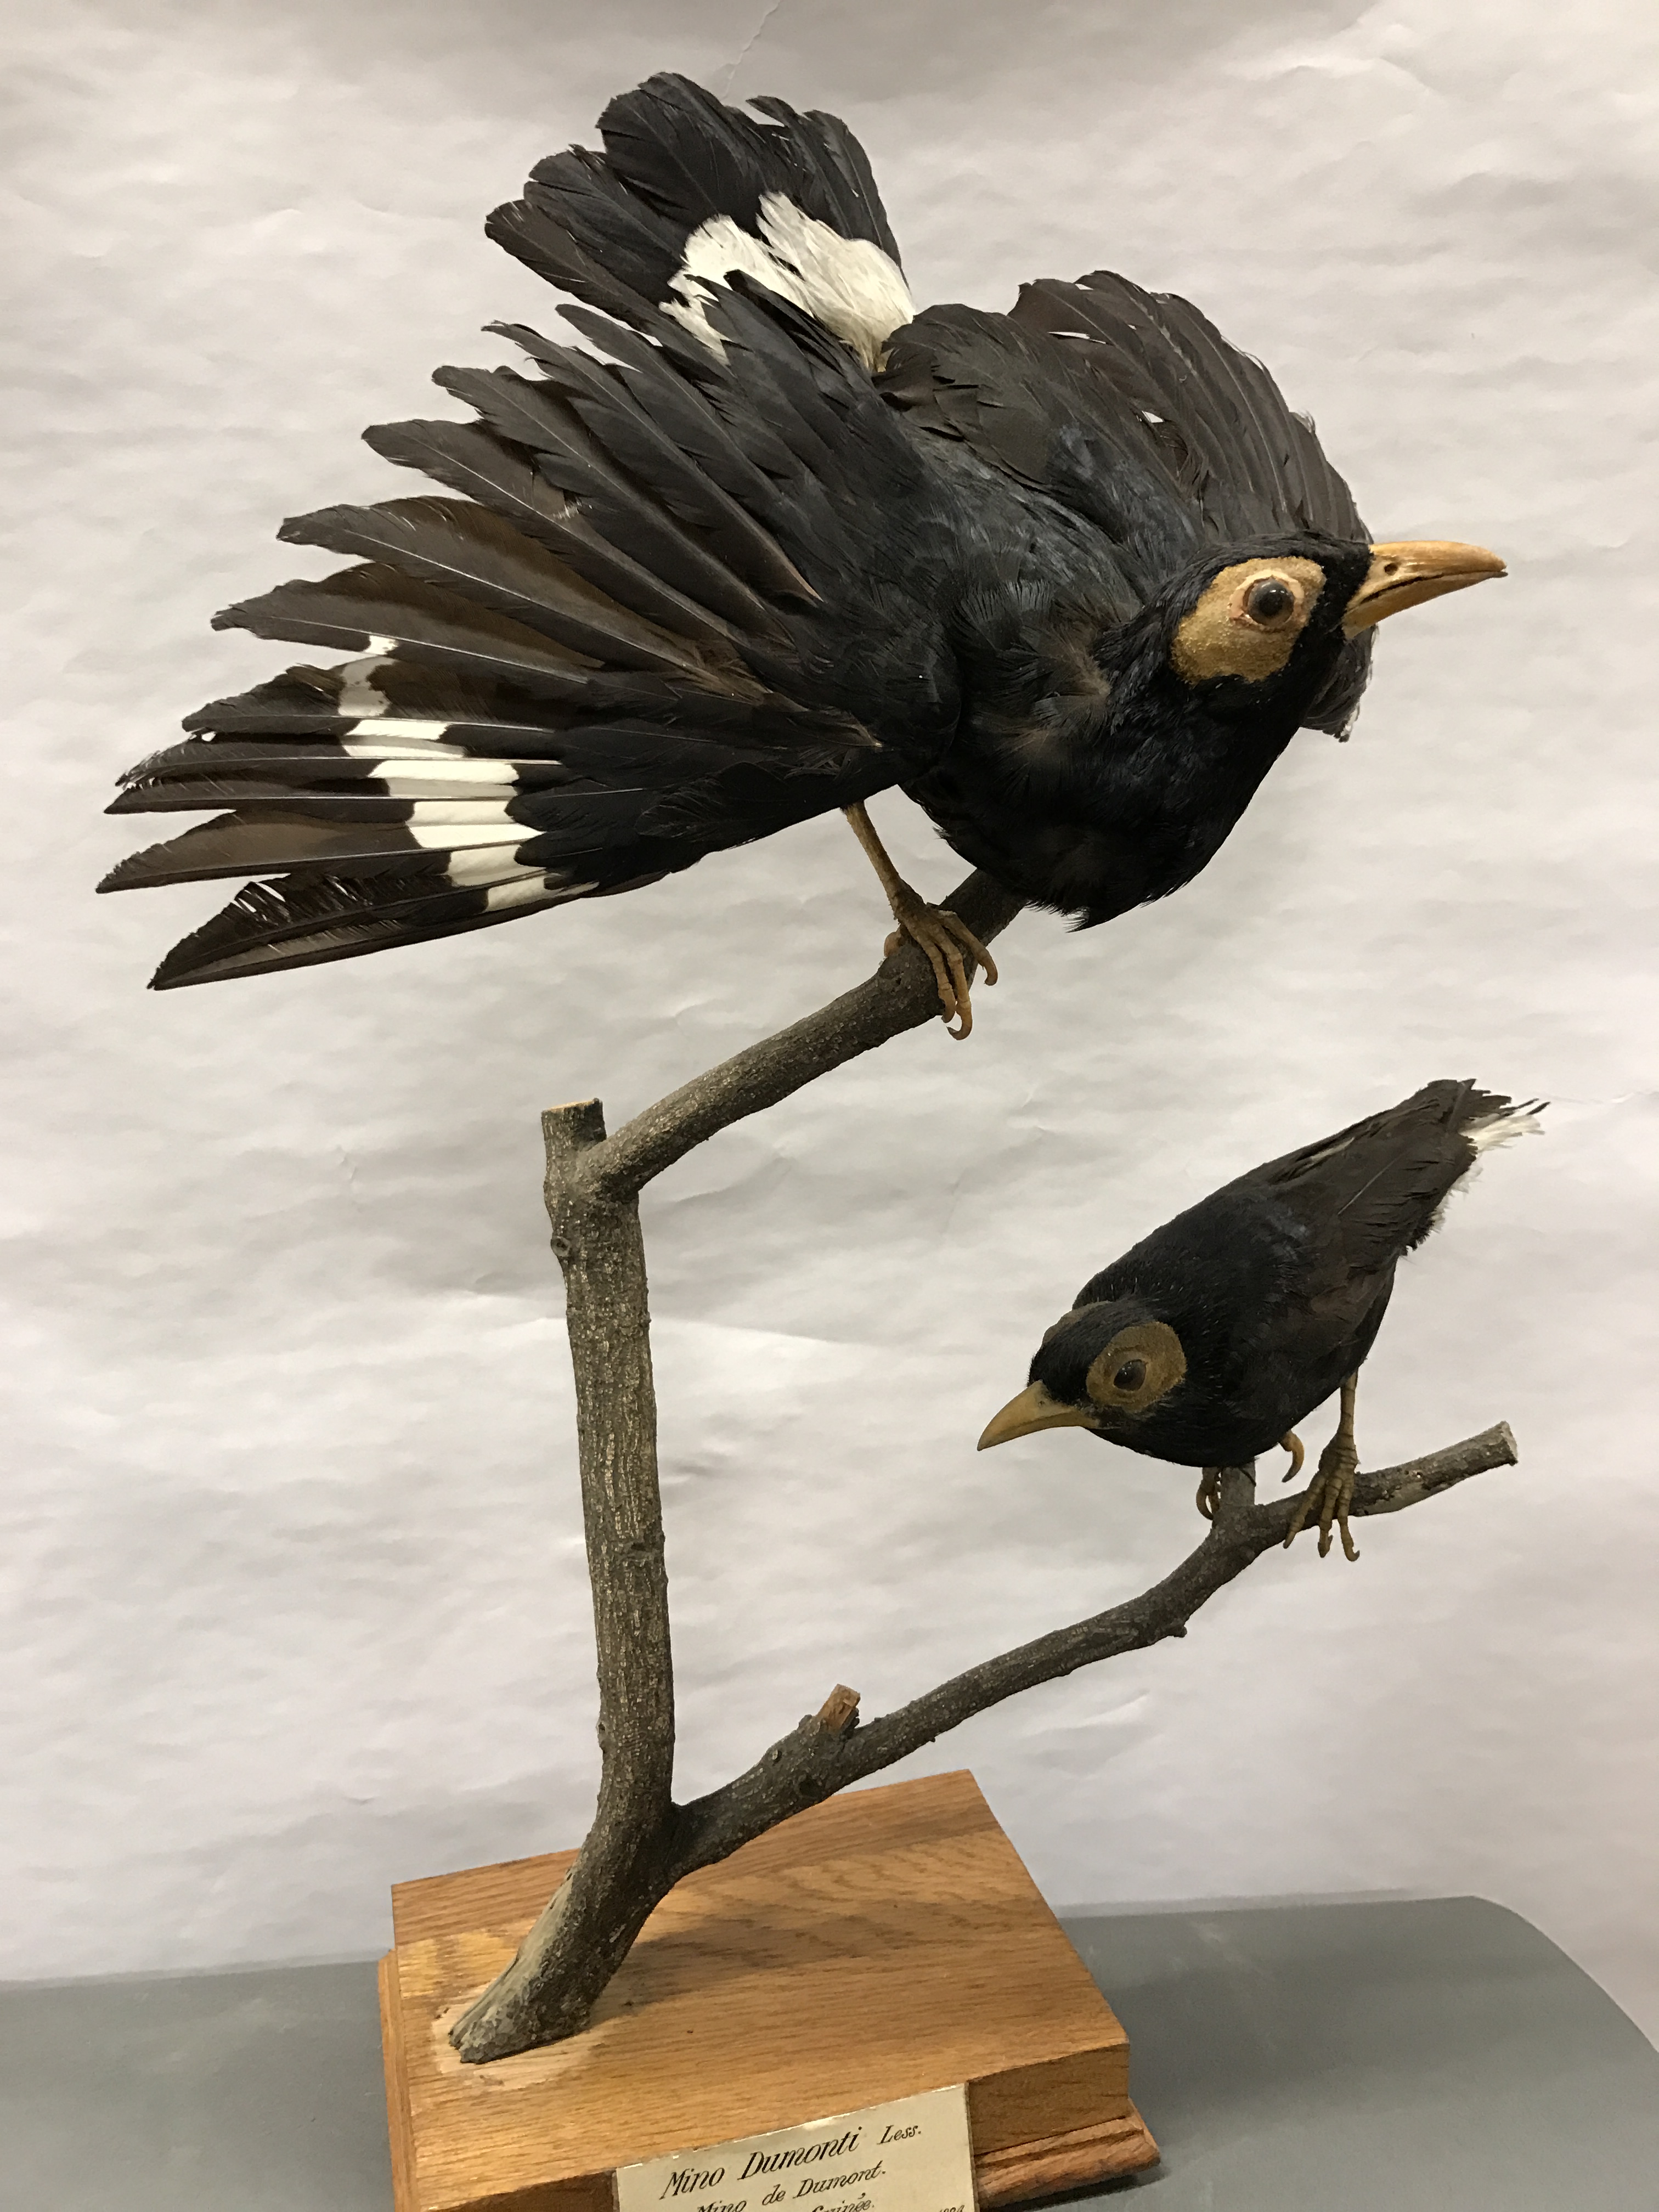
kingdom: Animalia
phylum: Chordata
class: Aves
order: Passeriformes
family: Sturnidae
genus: Mino
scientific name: Mino dumontii
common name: Yellow-faced myna
